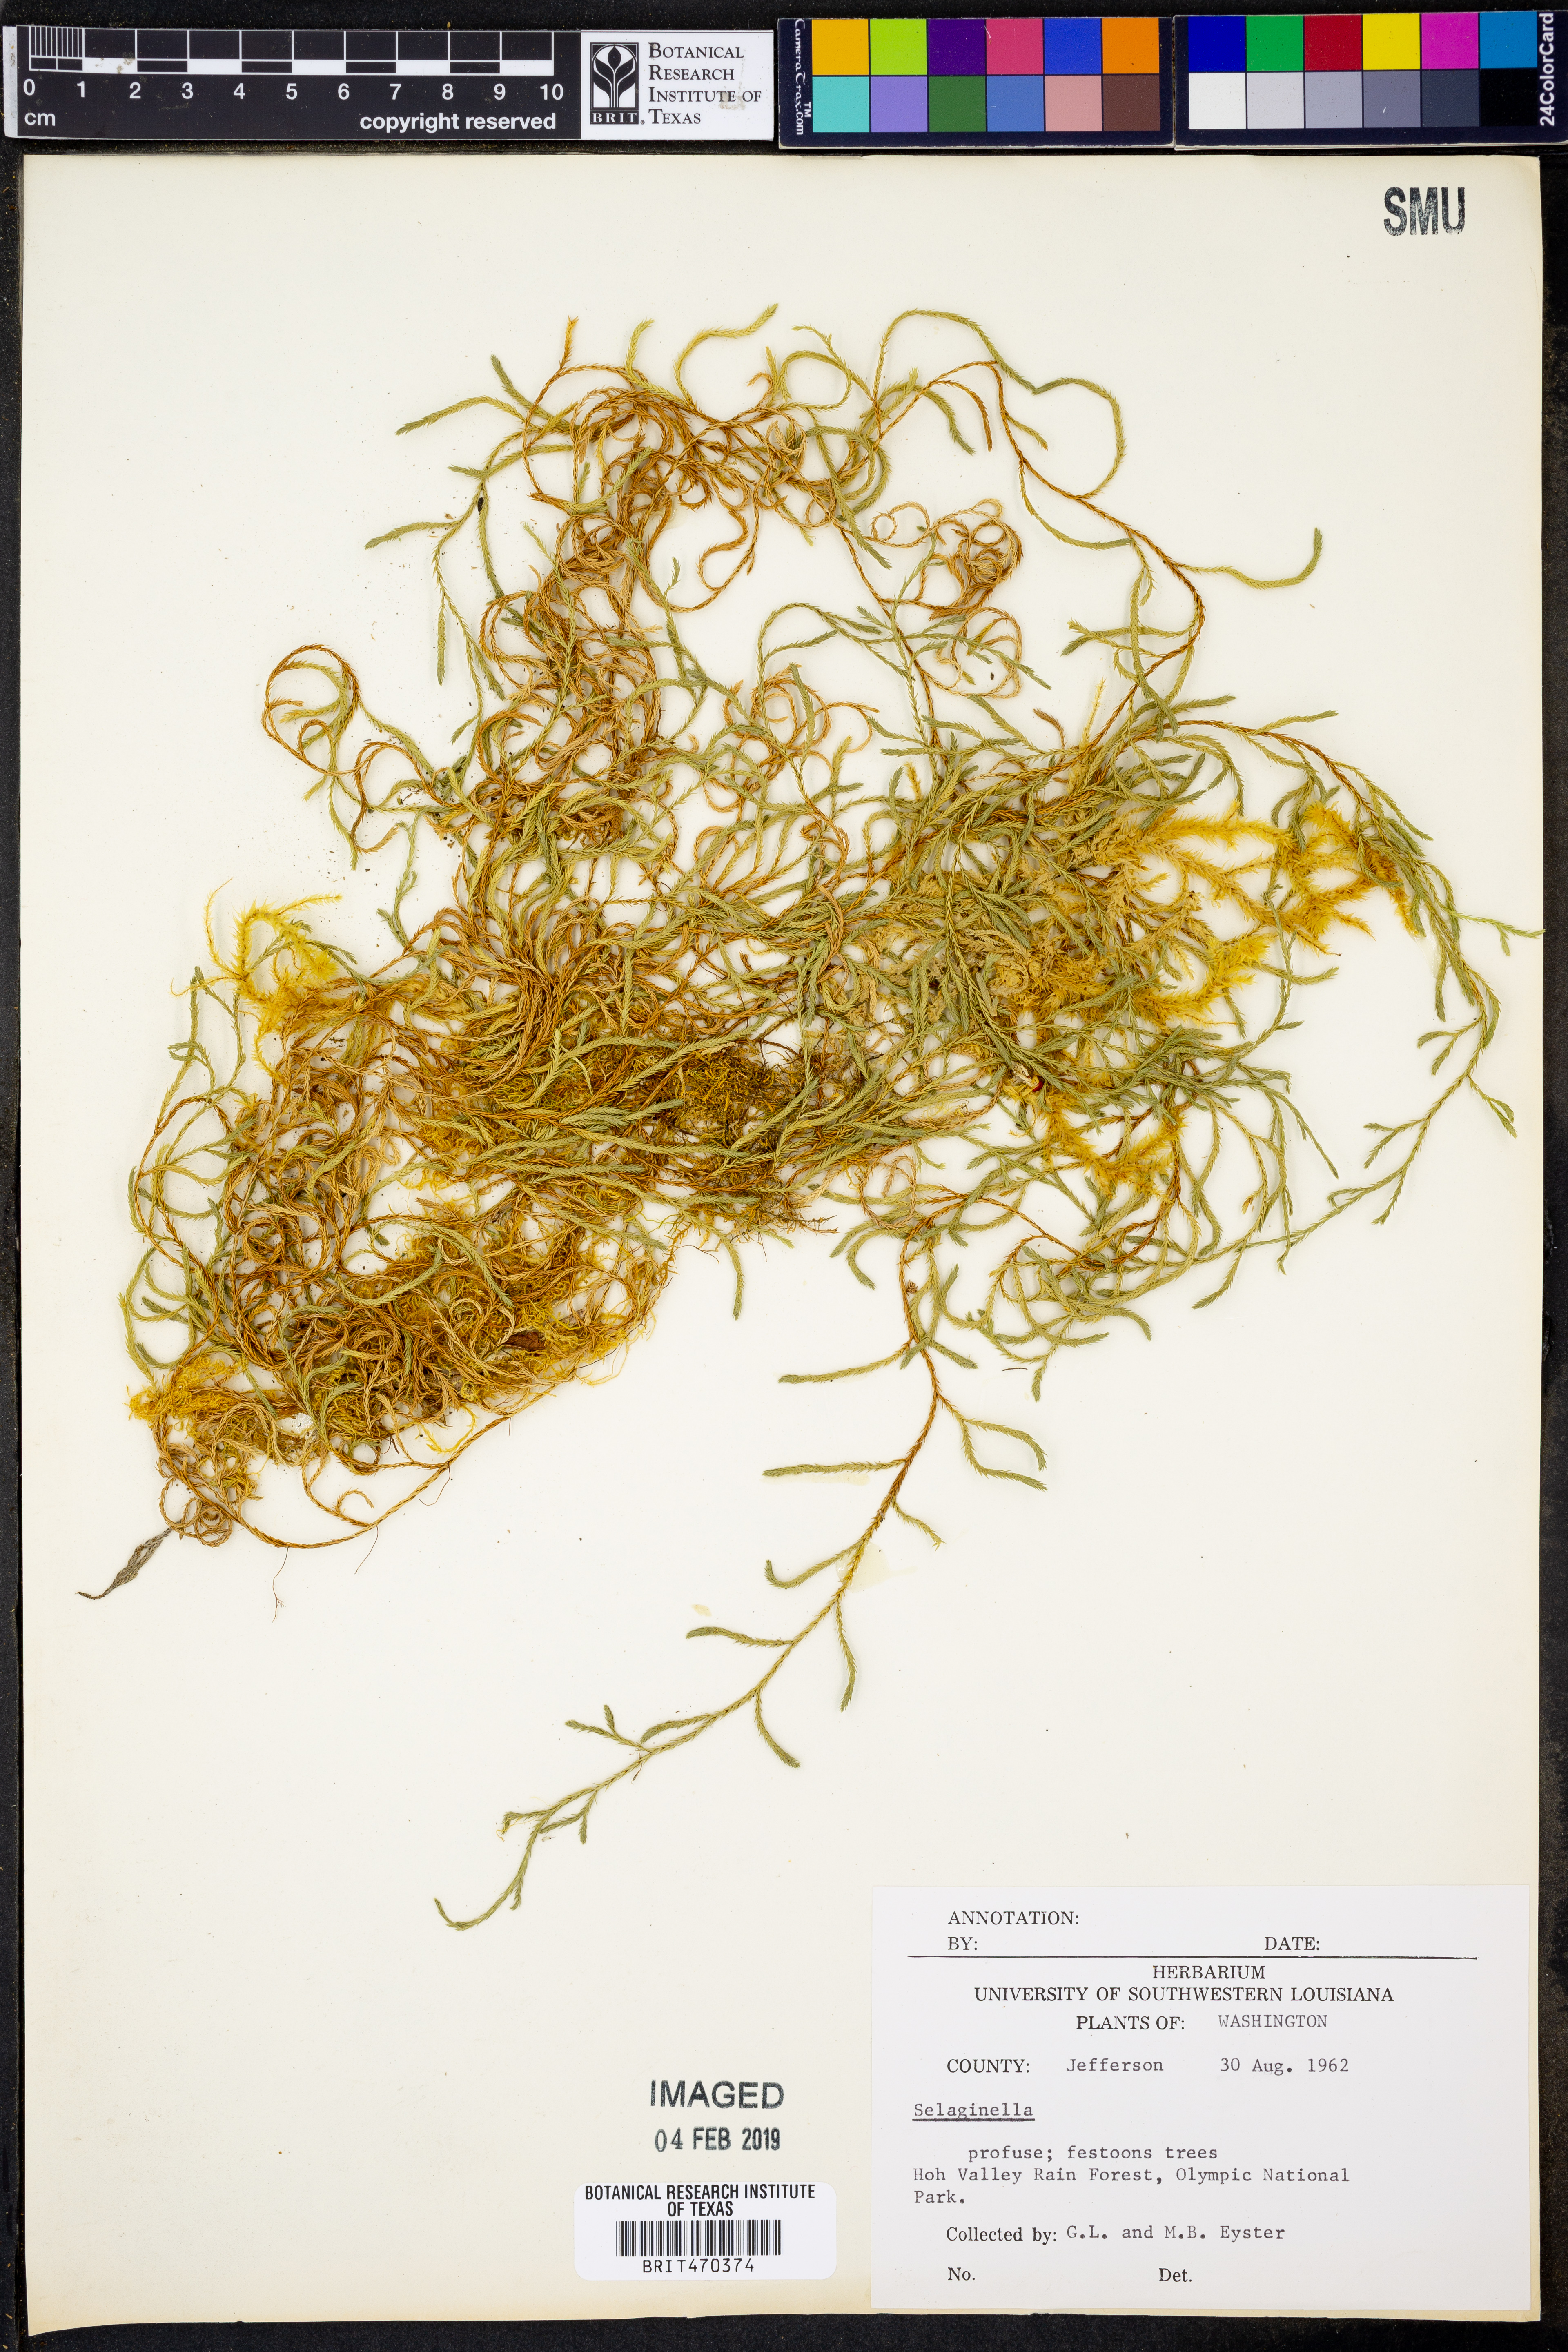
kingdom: Plantae
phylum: Tracheophyta
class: Lycopodiopsida
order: Selaginellales
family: Selaginellaceae
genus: Selaginella
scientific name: Selaginella
